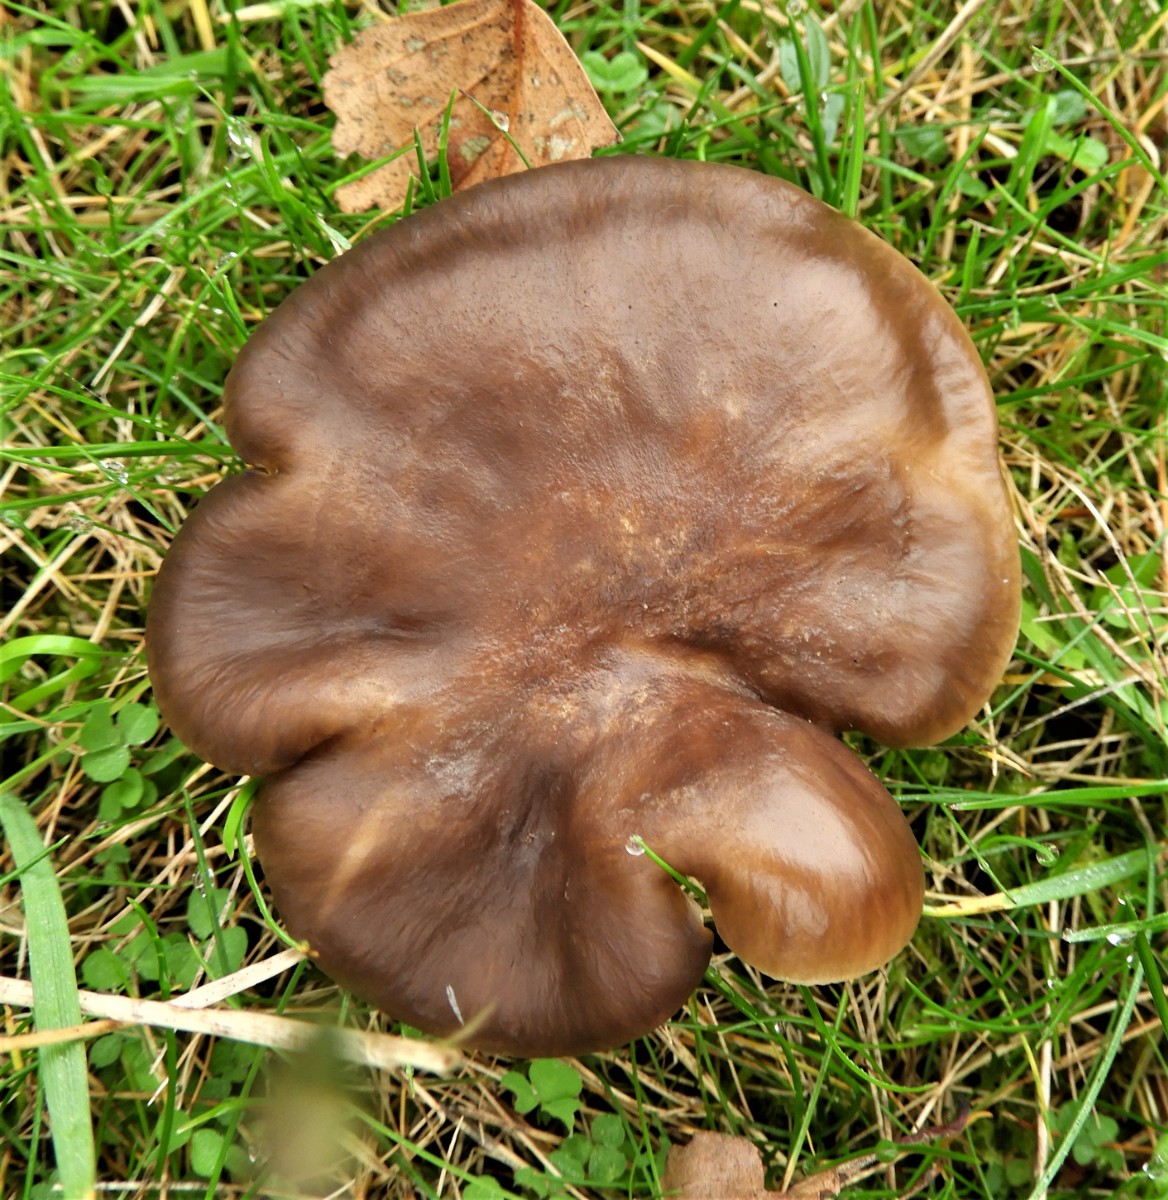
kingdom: Fungi
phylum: Basidiomycota
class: Agaricomycetes
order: Agaricales
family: Lyophyllaceae
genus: Lyophyllum
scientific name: Lyophyllum decastes
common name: røggrå gråblad
